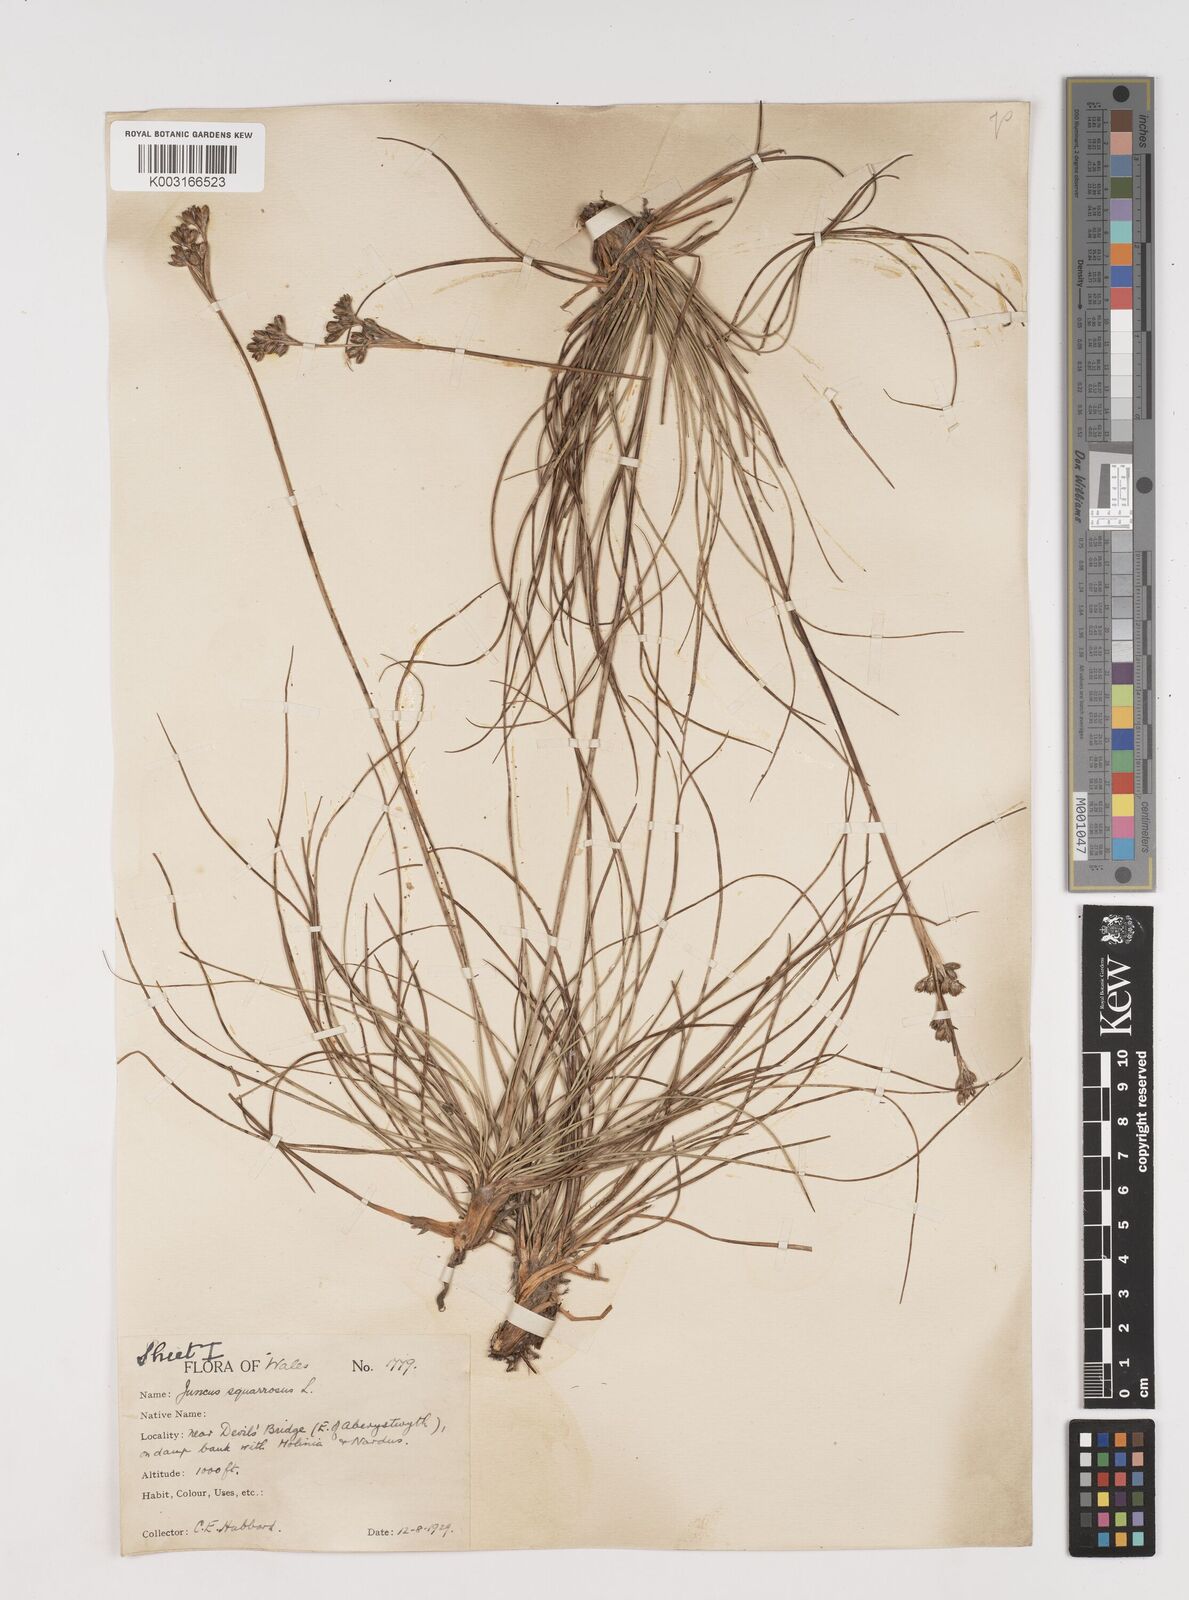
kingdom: Plantae
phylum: Tracheophyta
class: Liliopsida
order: Poales
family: Juncaceae
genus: Juncus
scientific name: Juncus squarrosus
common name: Heath rush
